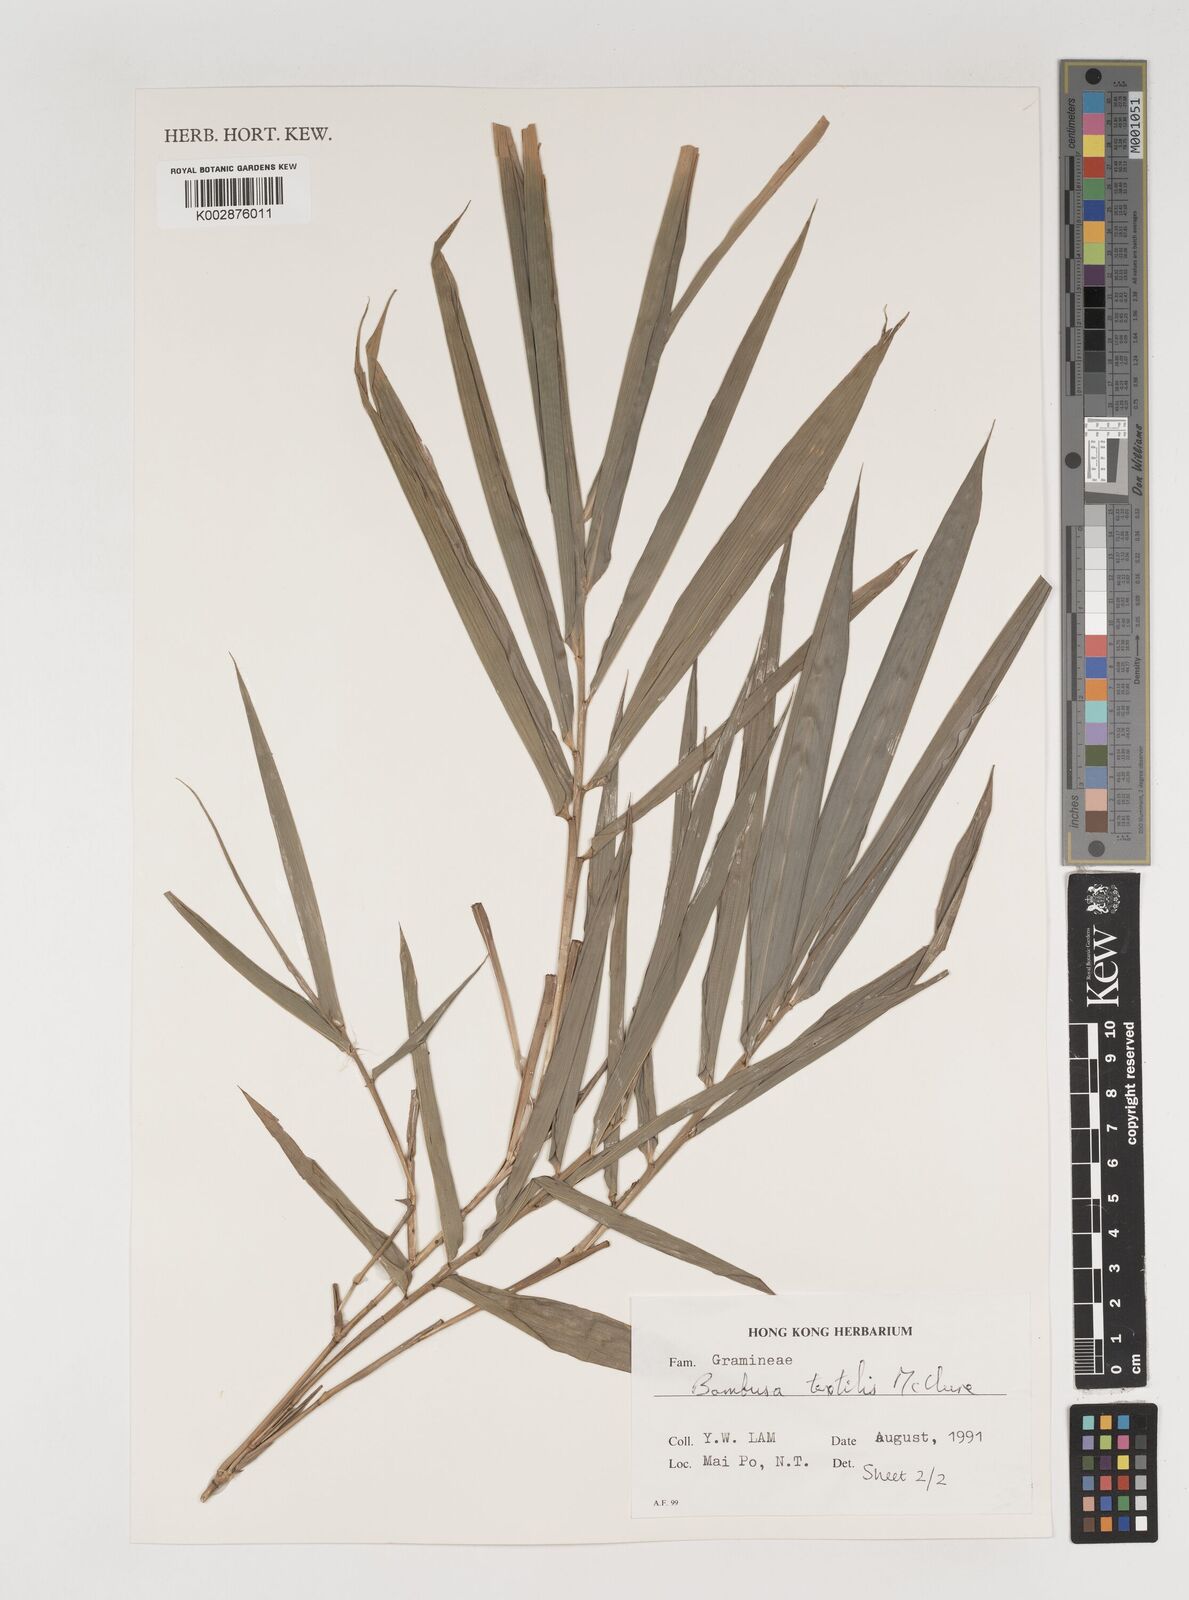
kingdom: Plantae
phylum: Tracheophyta
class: Liliopsida
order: Poales
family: Poaceae
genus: Bambusa
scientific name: Bambusa
